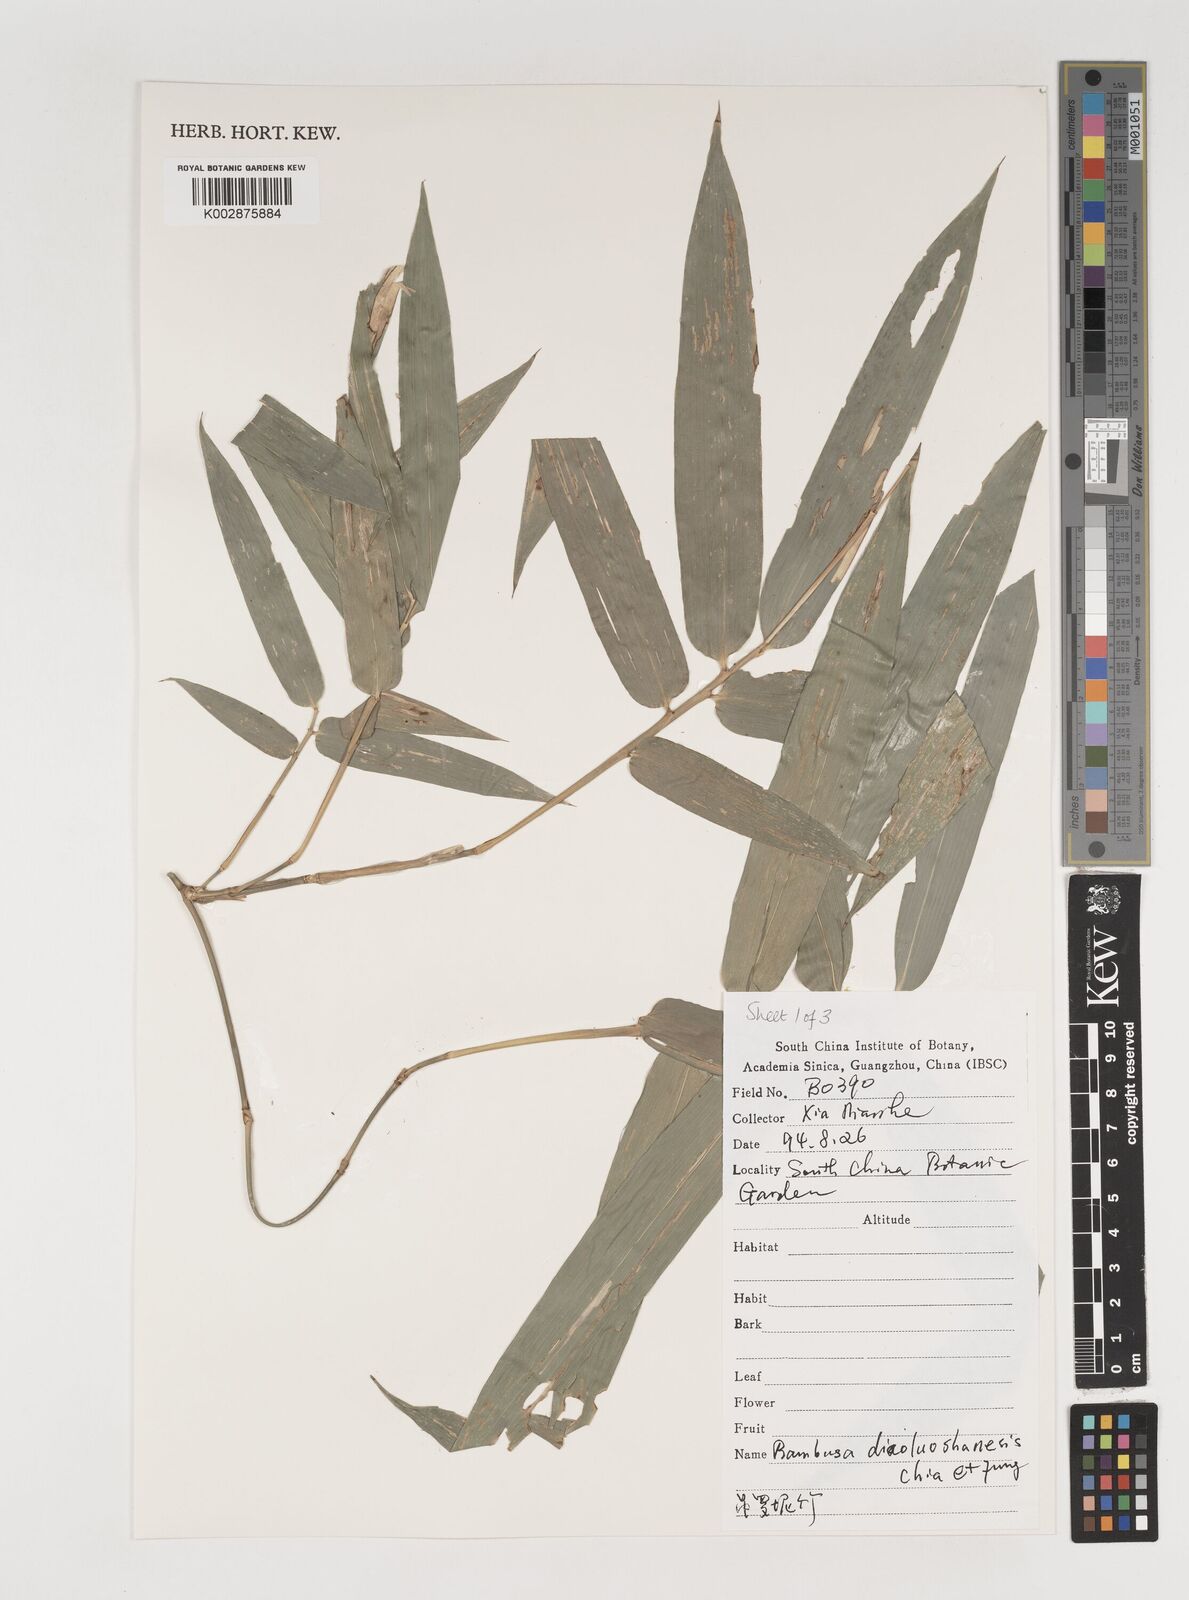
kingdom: Plantae
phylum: Tracheophyta
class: Liliopsida
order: Poales
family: Poaceae
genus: Bambusa
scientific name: Bambusa diaoluoshanensis
